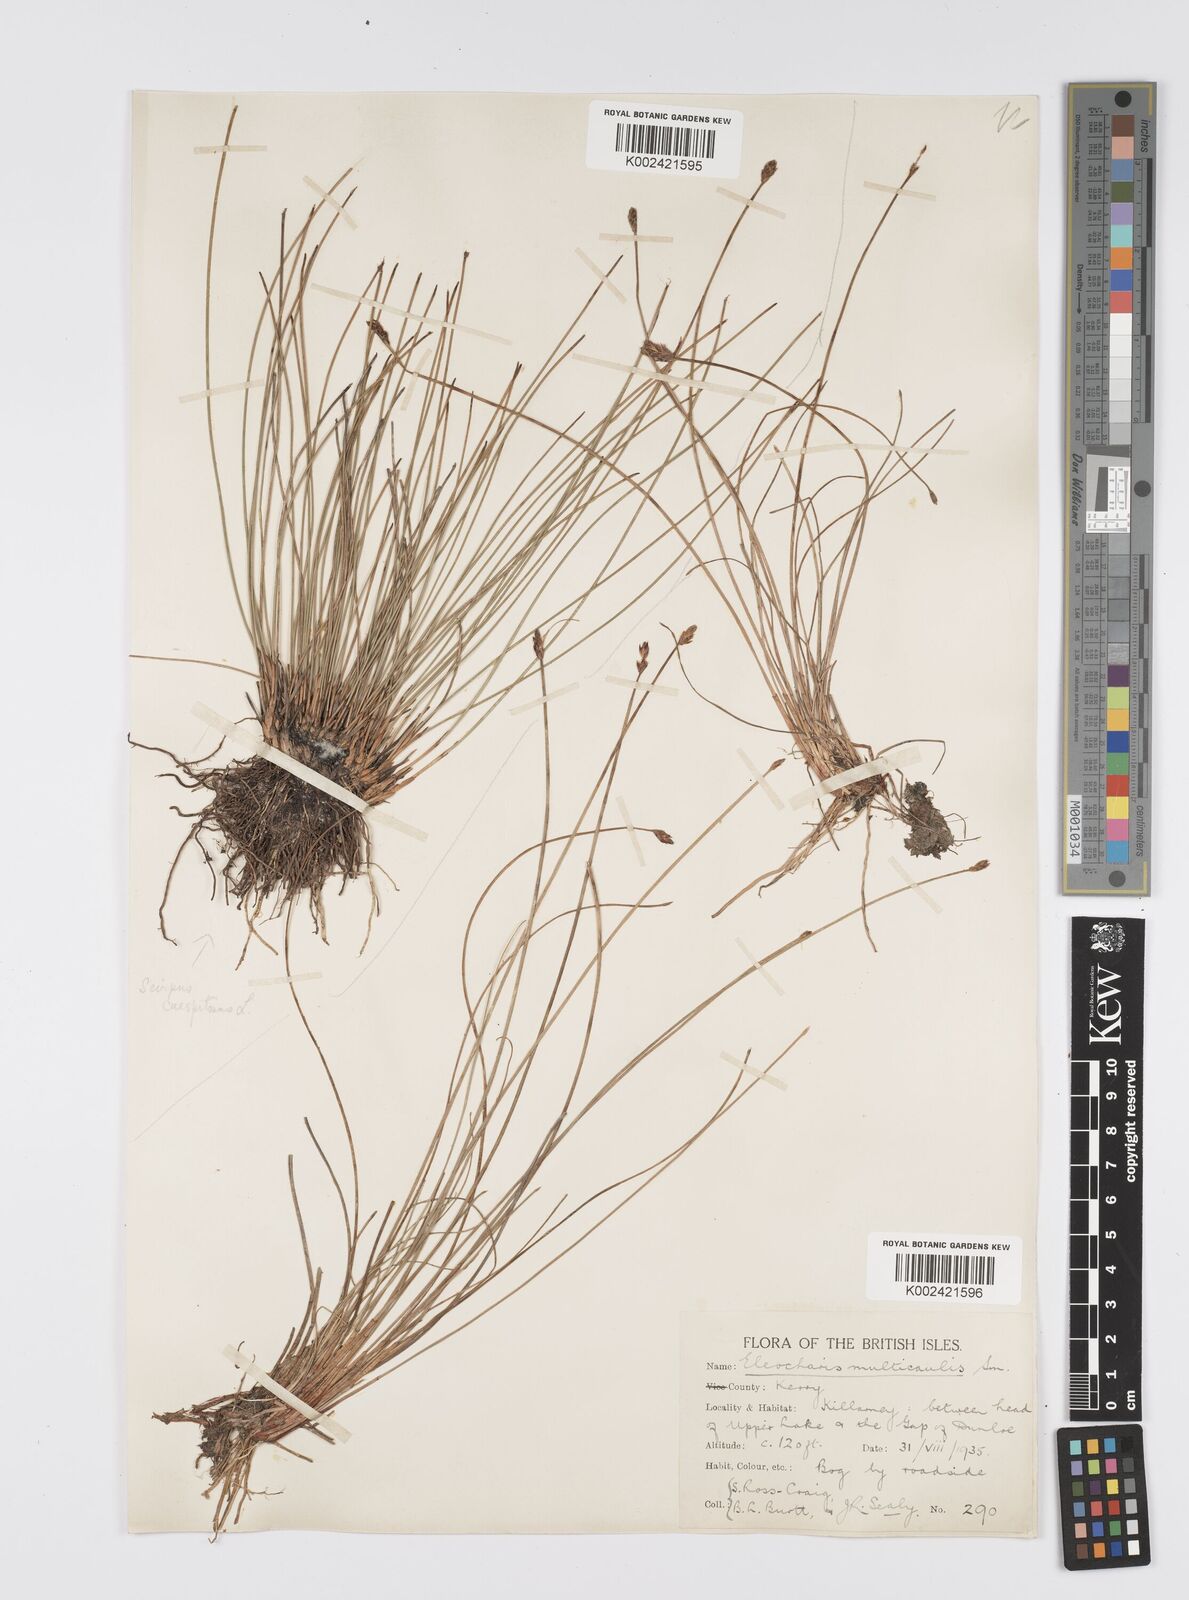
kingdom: Plantae
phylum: Tracheophyta
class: Liliopsida
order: Poales
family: Cyperaceae
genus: Eleocharis
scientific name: Eleocharis multicaulis
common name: Many-stalked spike-rush
